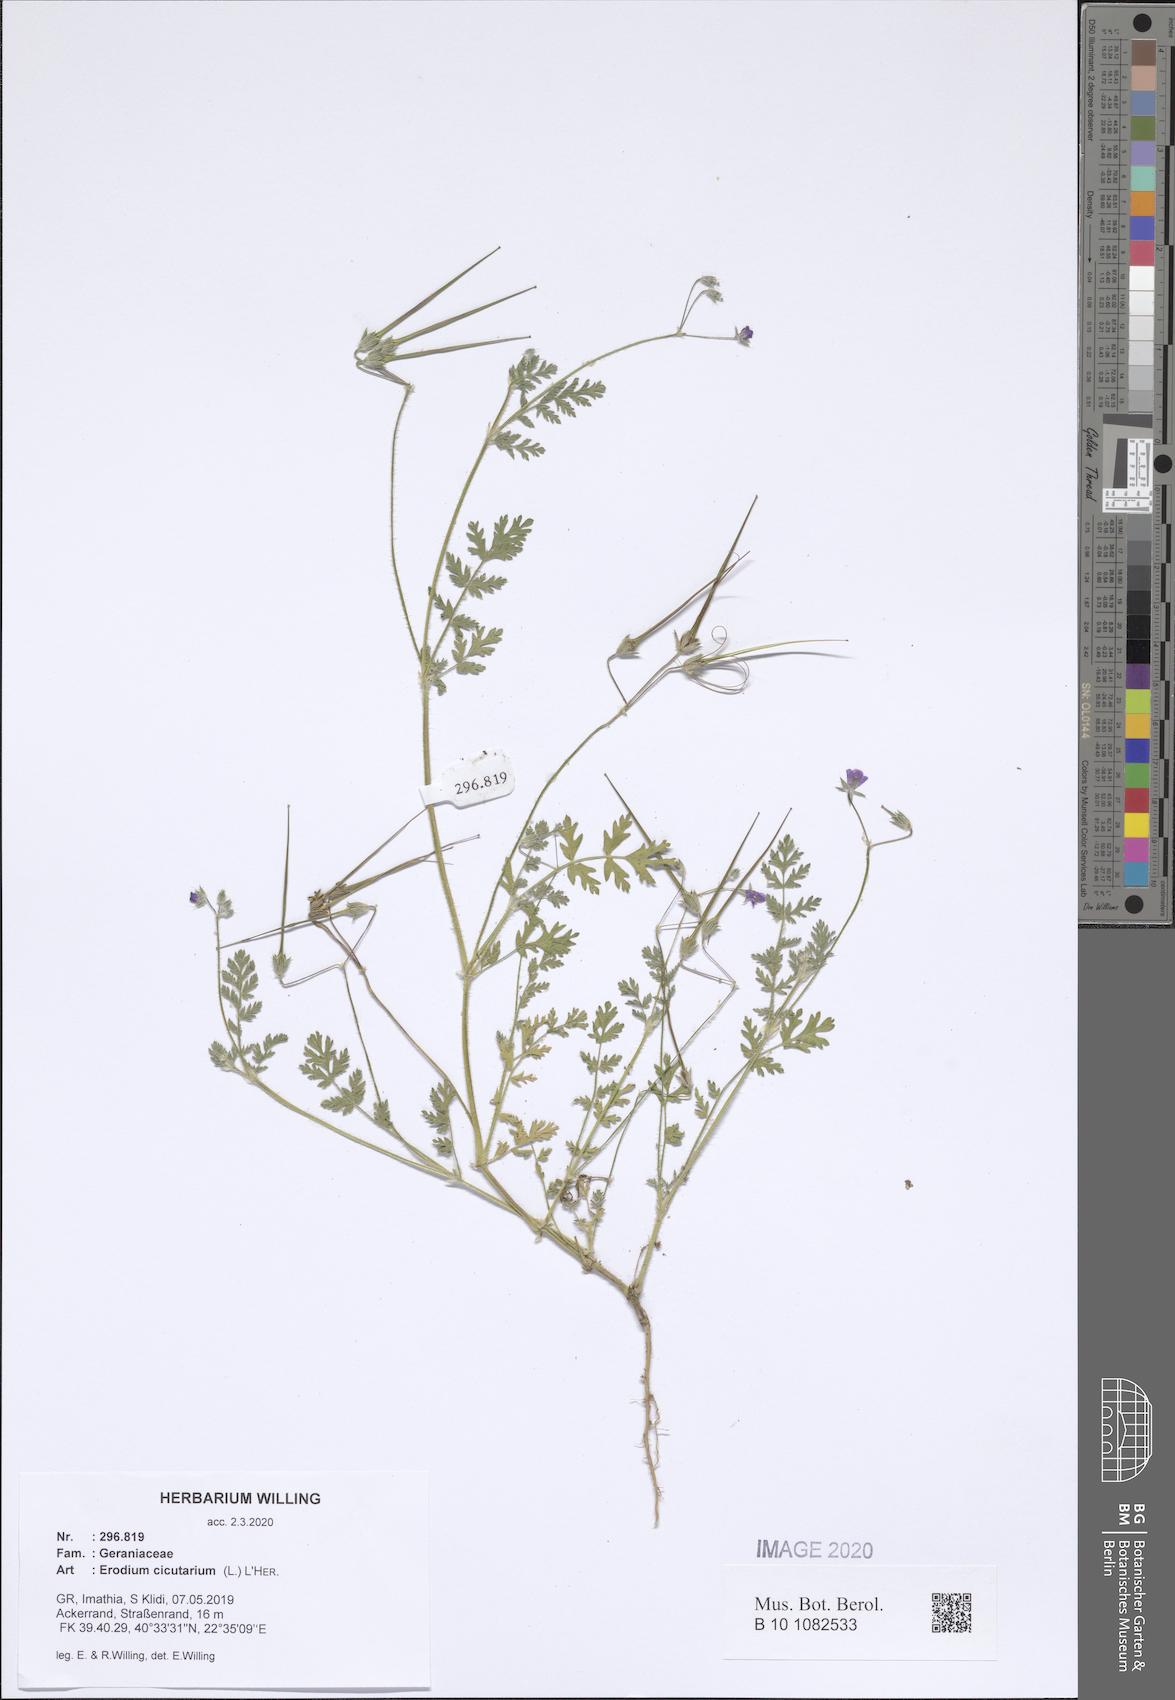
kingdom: Plantae
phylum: Tracheophyta
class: Magnoliopsida
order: Geraniales
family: Geraniaceae
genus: Erodium
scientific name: Erodium cicutarium
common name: Common stork's-bill
